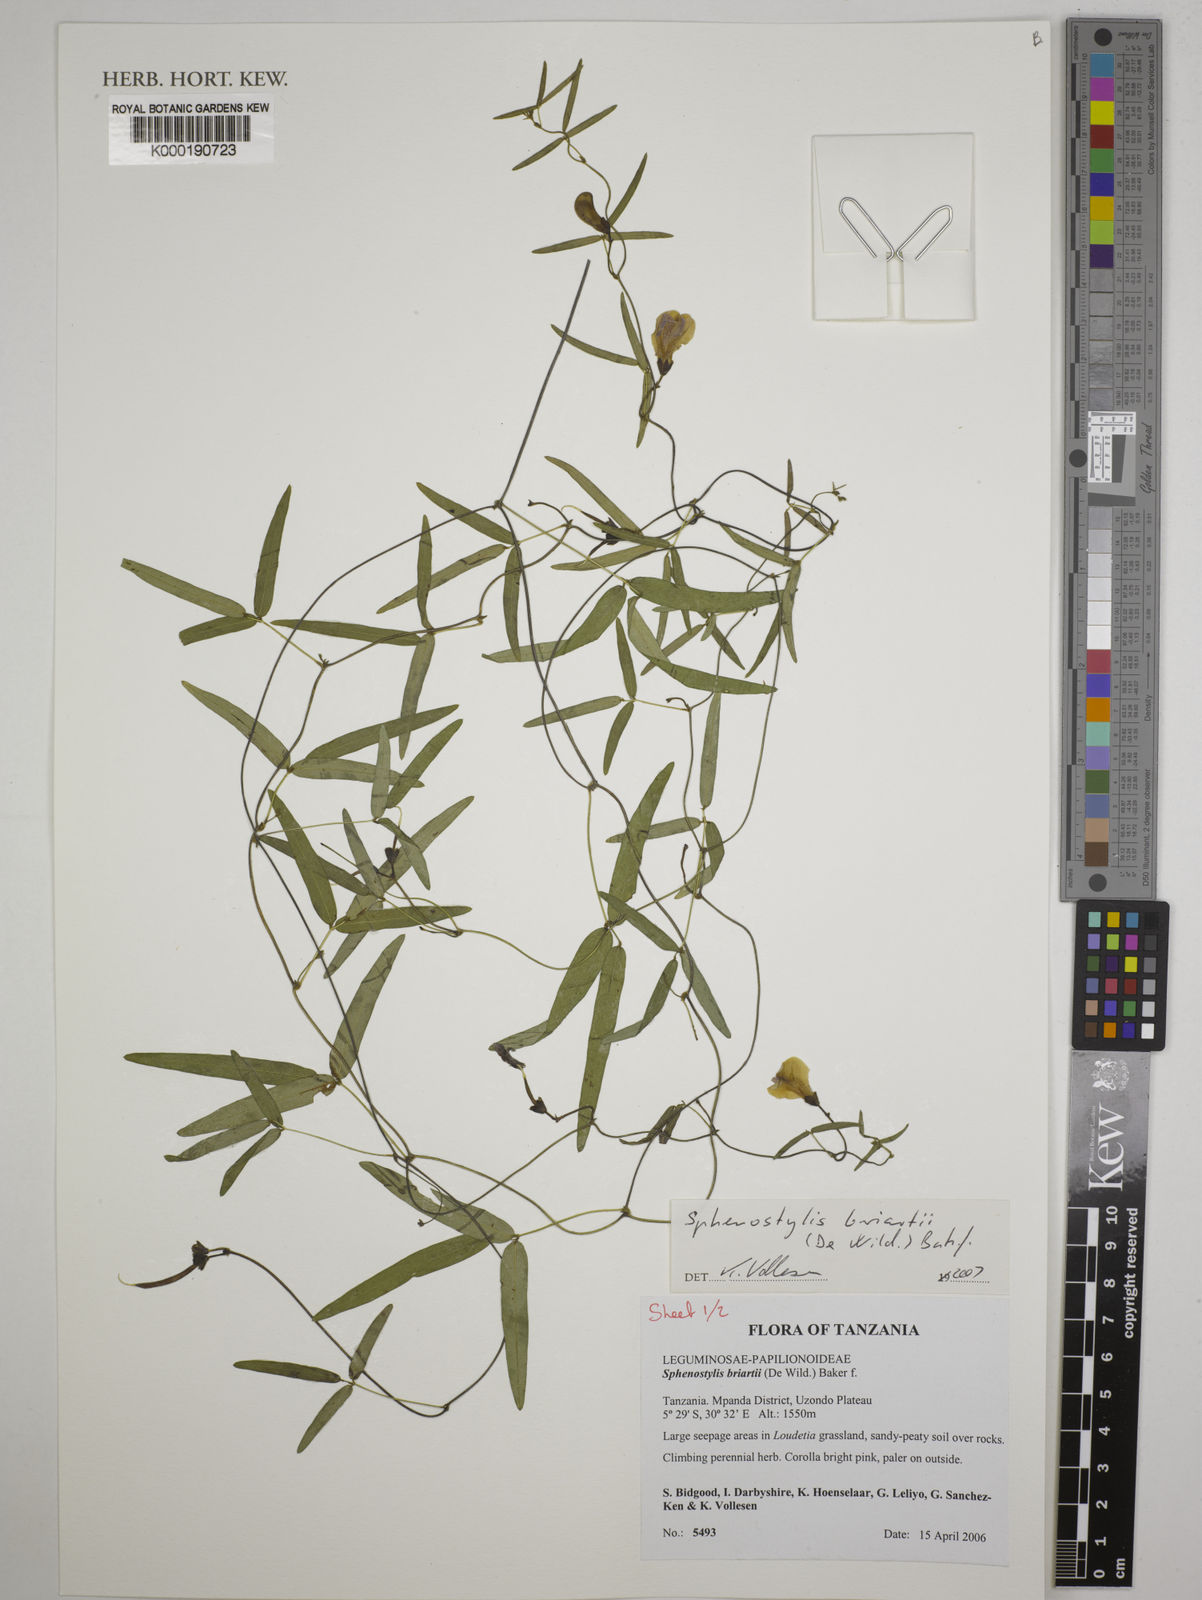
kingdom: Plantae
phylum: Tracheophyta
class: Magnoliopsida
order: Fabales
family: Fabaceae
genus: Sphenostylis
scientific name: Sphenostylis briartii
